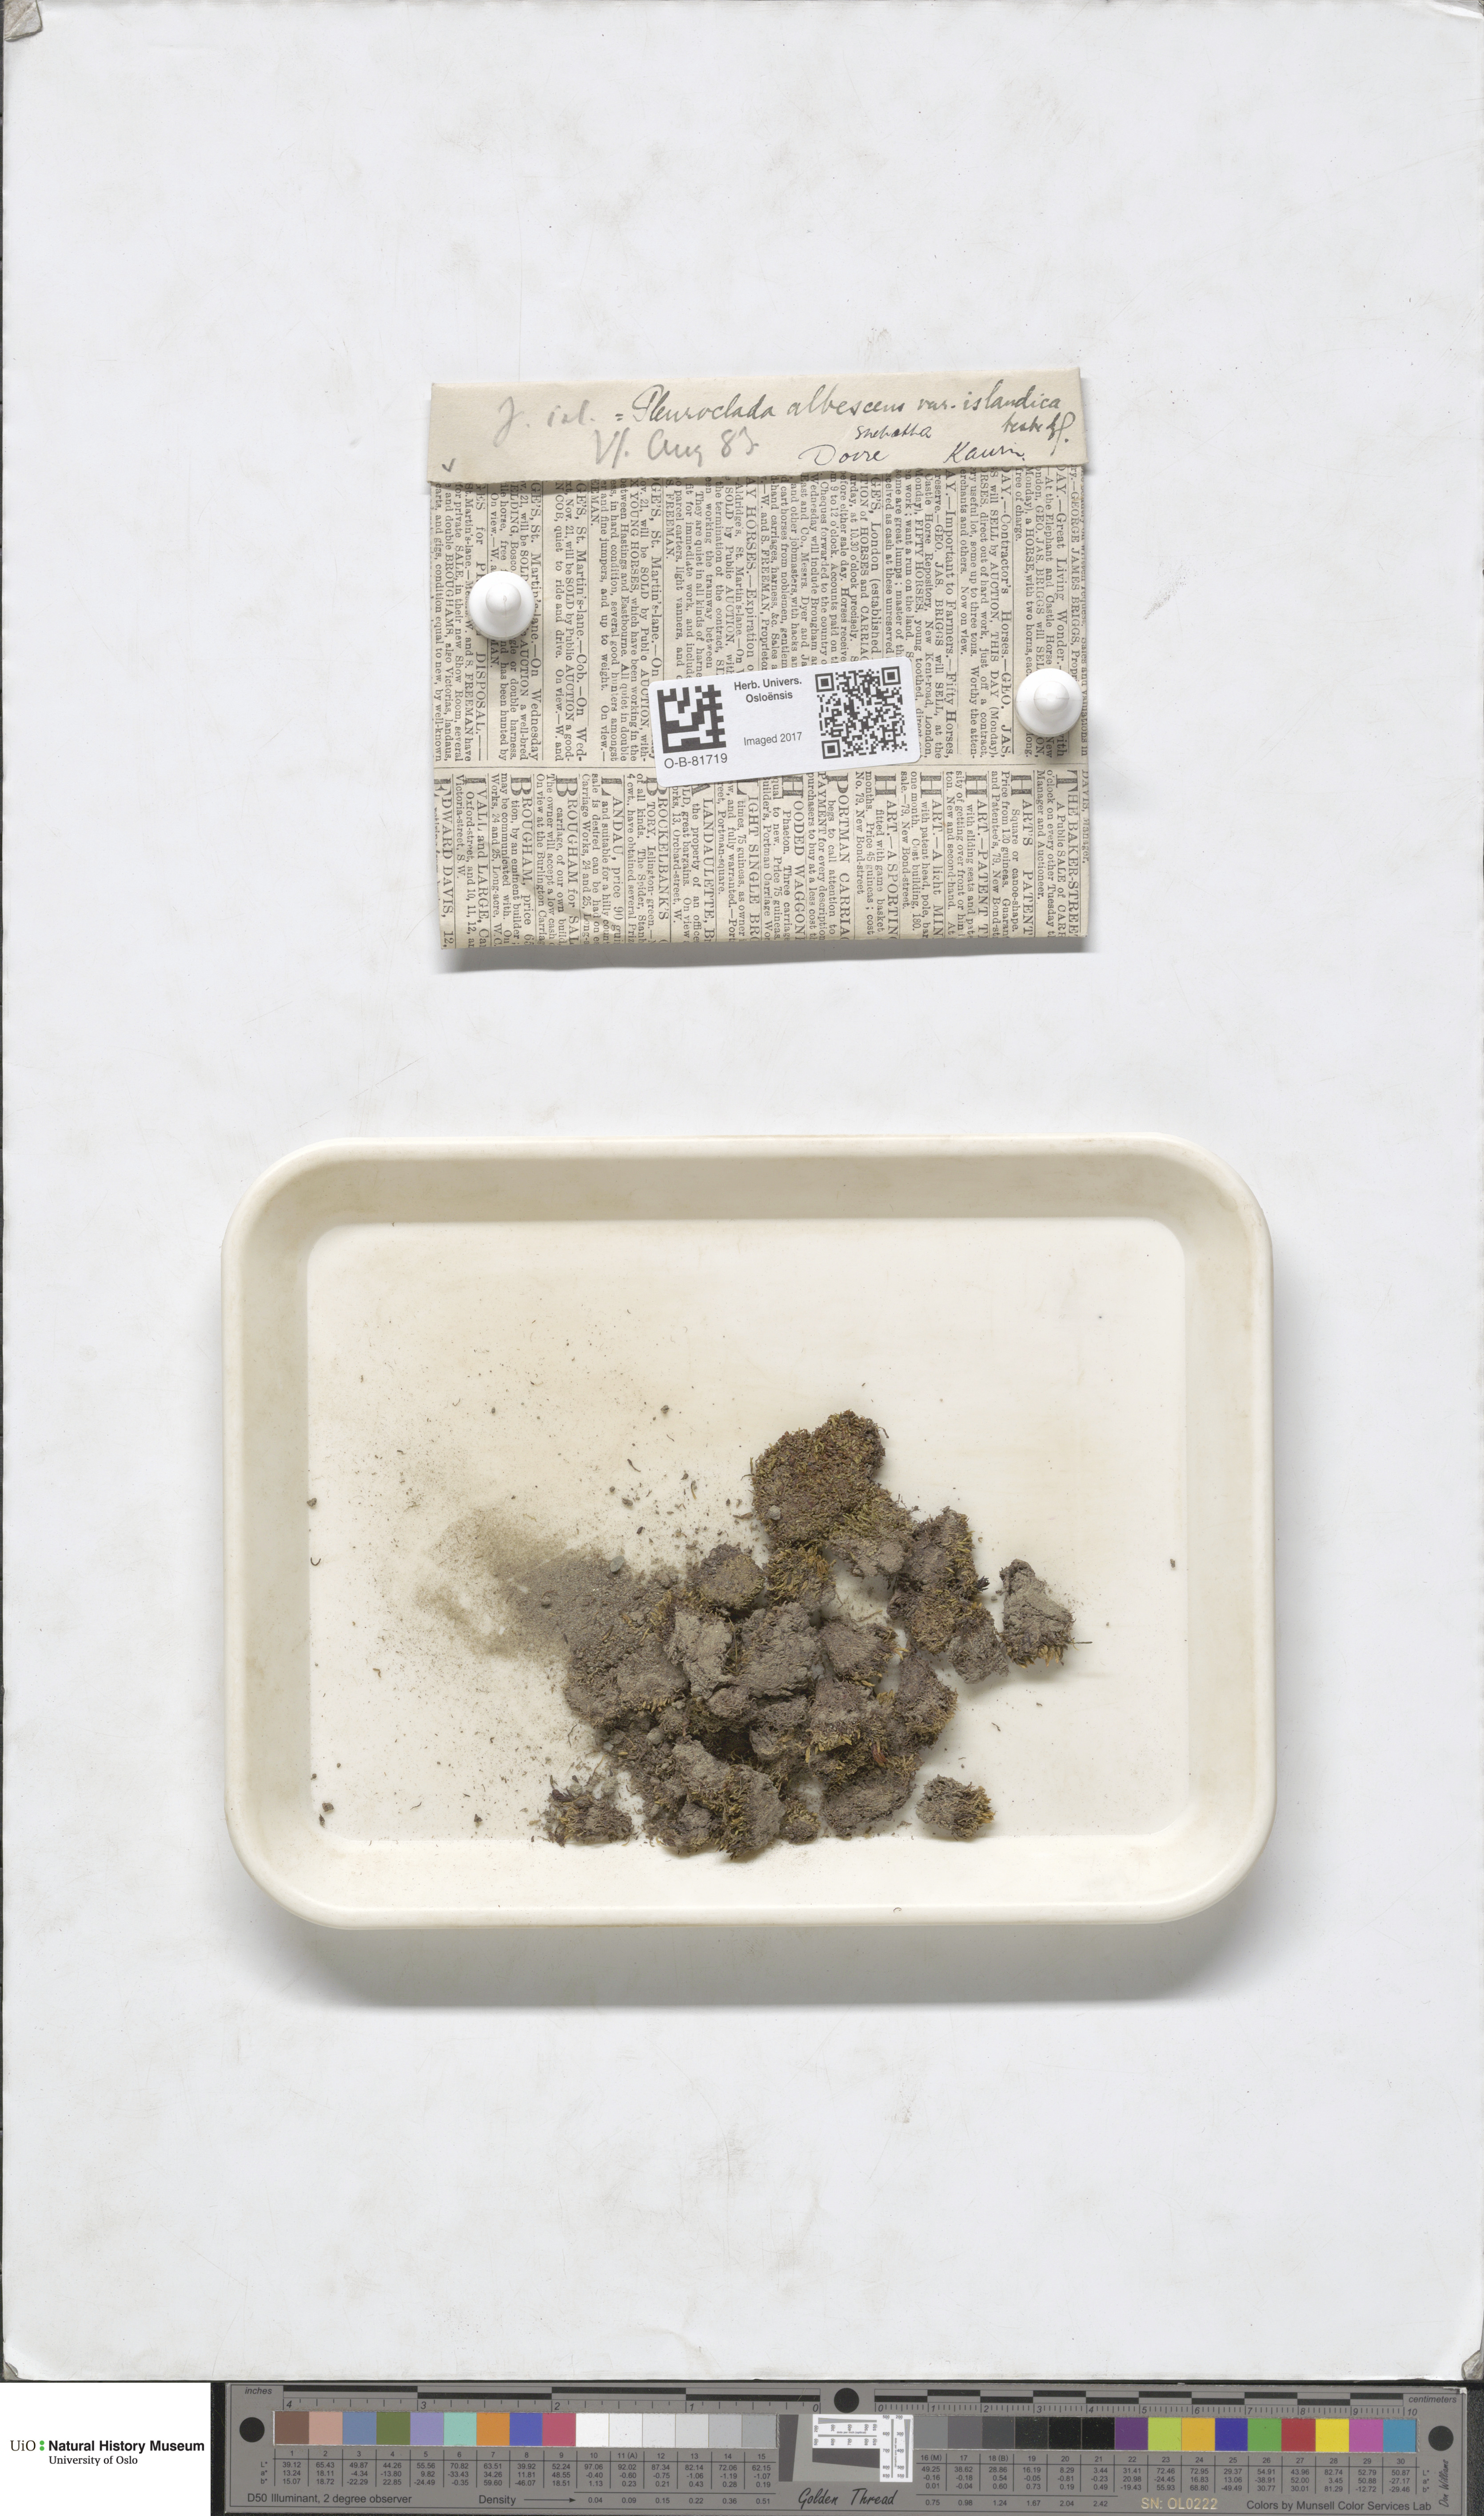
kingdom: Plantae
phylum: Marchantiophyta
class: Jungermanniopsida
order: Jungermanniales
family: Cephaloziaceae
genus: Fuscocephaloziopsis
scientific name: Fuscocephaloziopsis albescens
